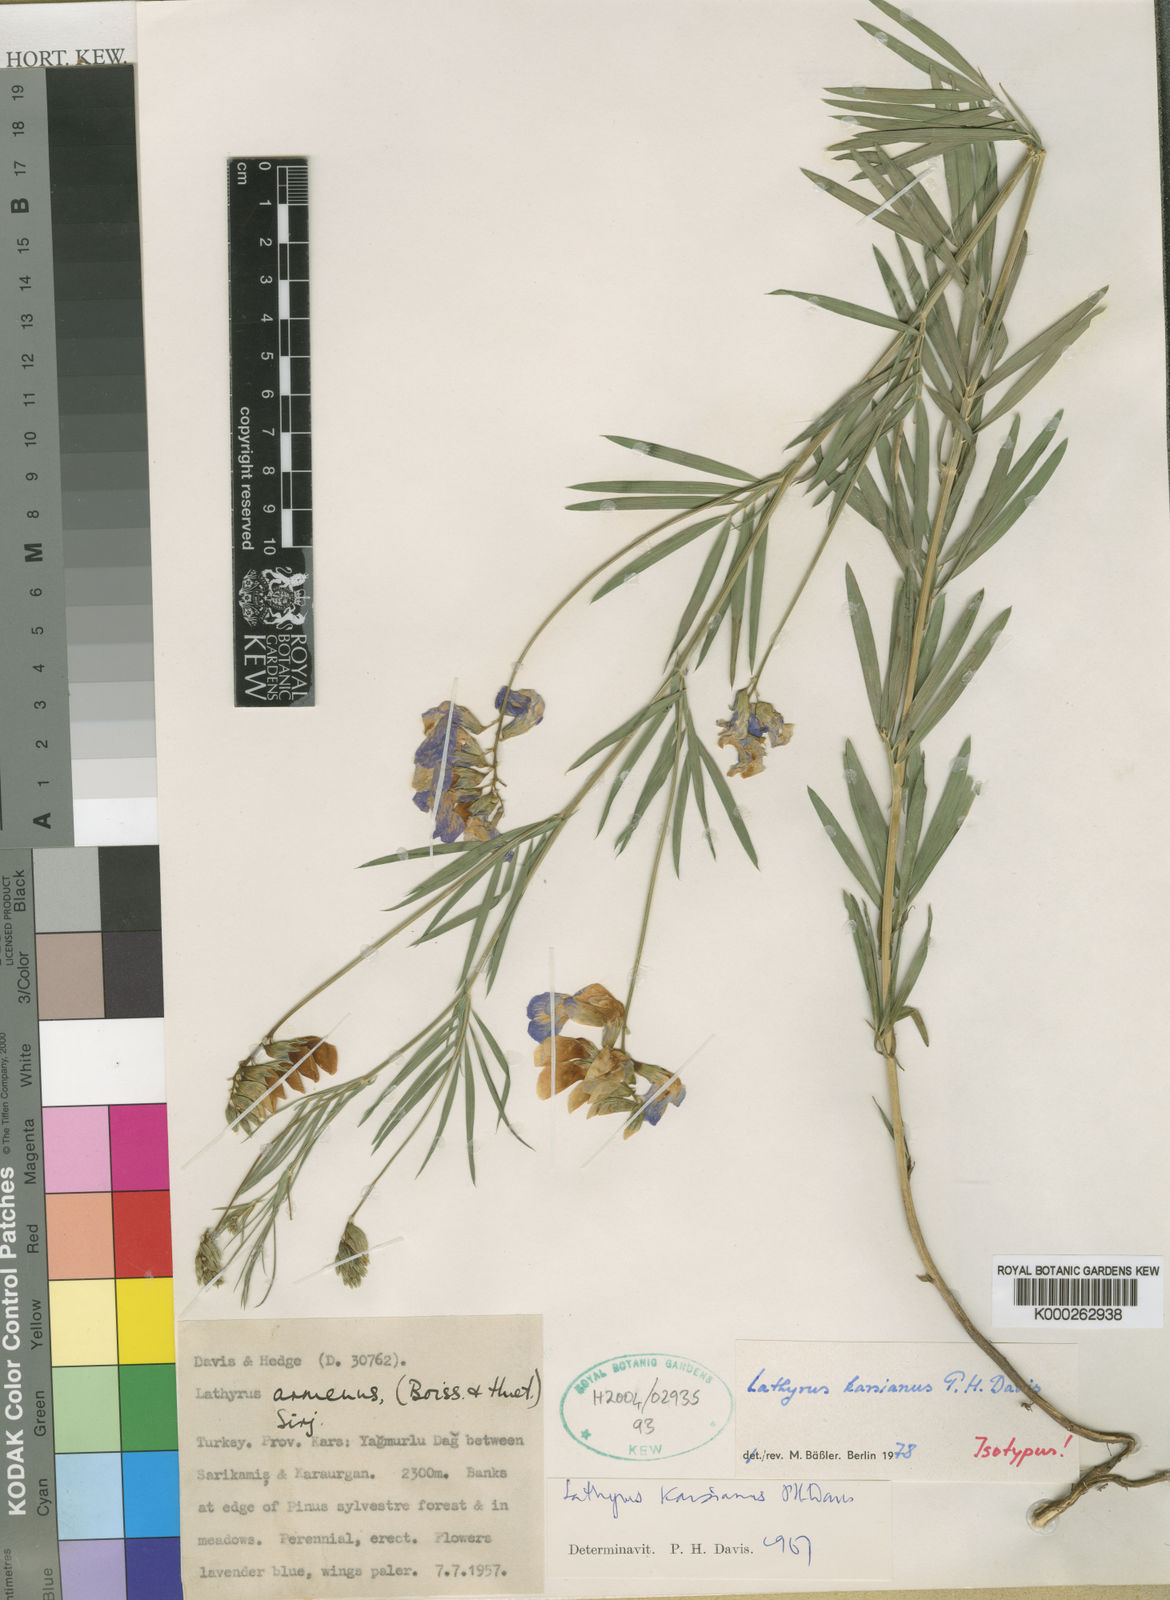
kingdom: Plantae
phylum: Tracheophyta
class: Magnoliopsida
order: Fabales
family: Fabaceae
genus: Lathyrus
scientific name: Lathyrus karsianus
